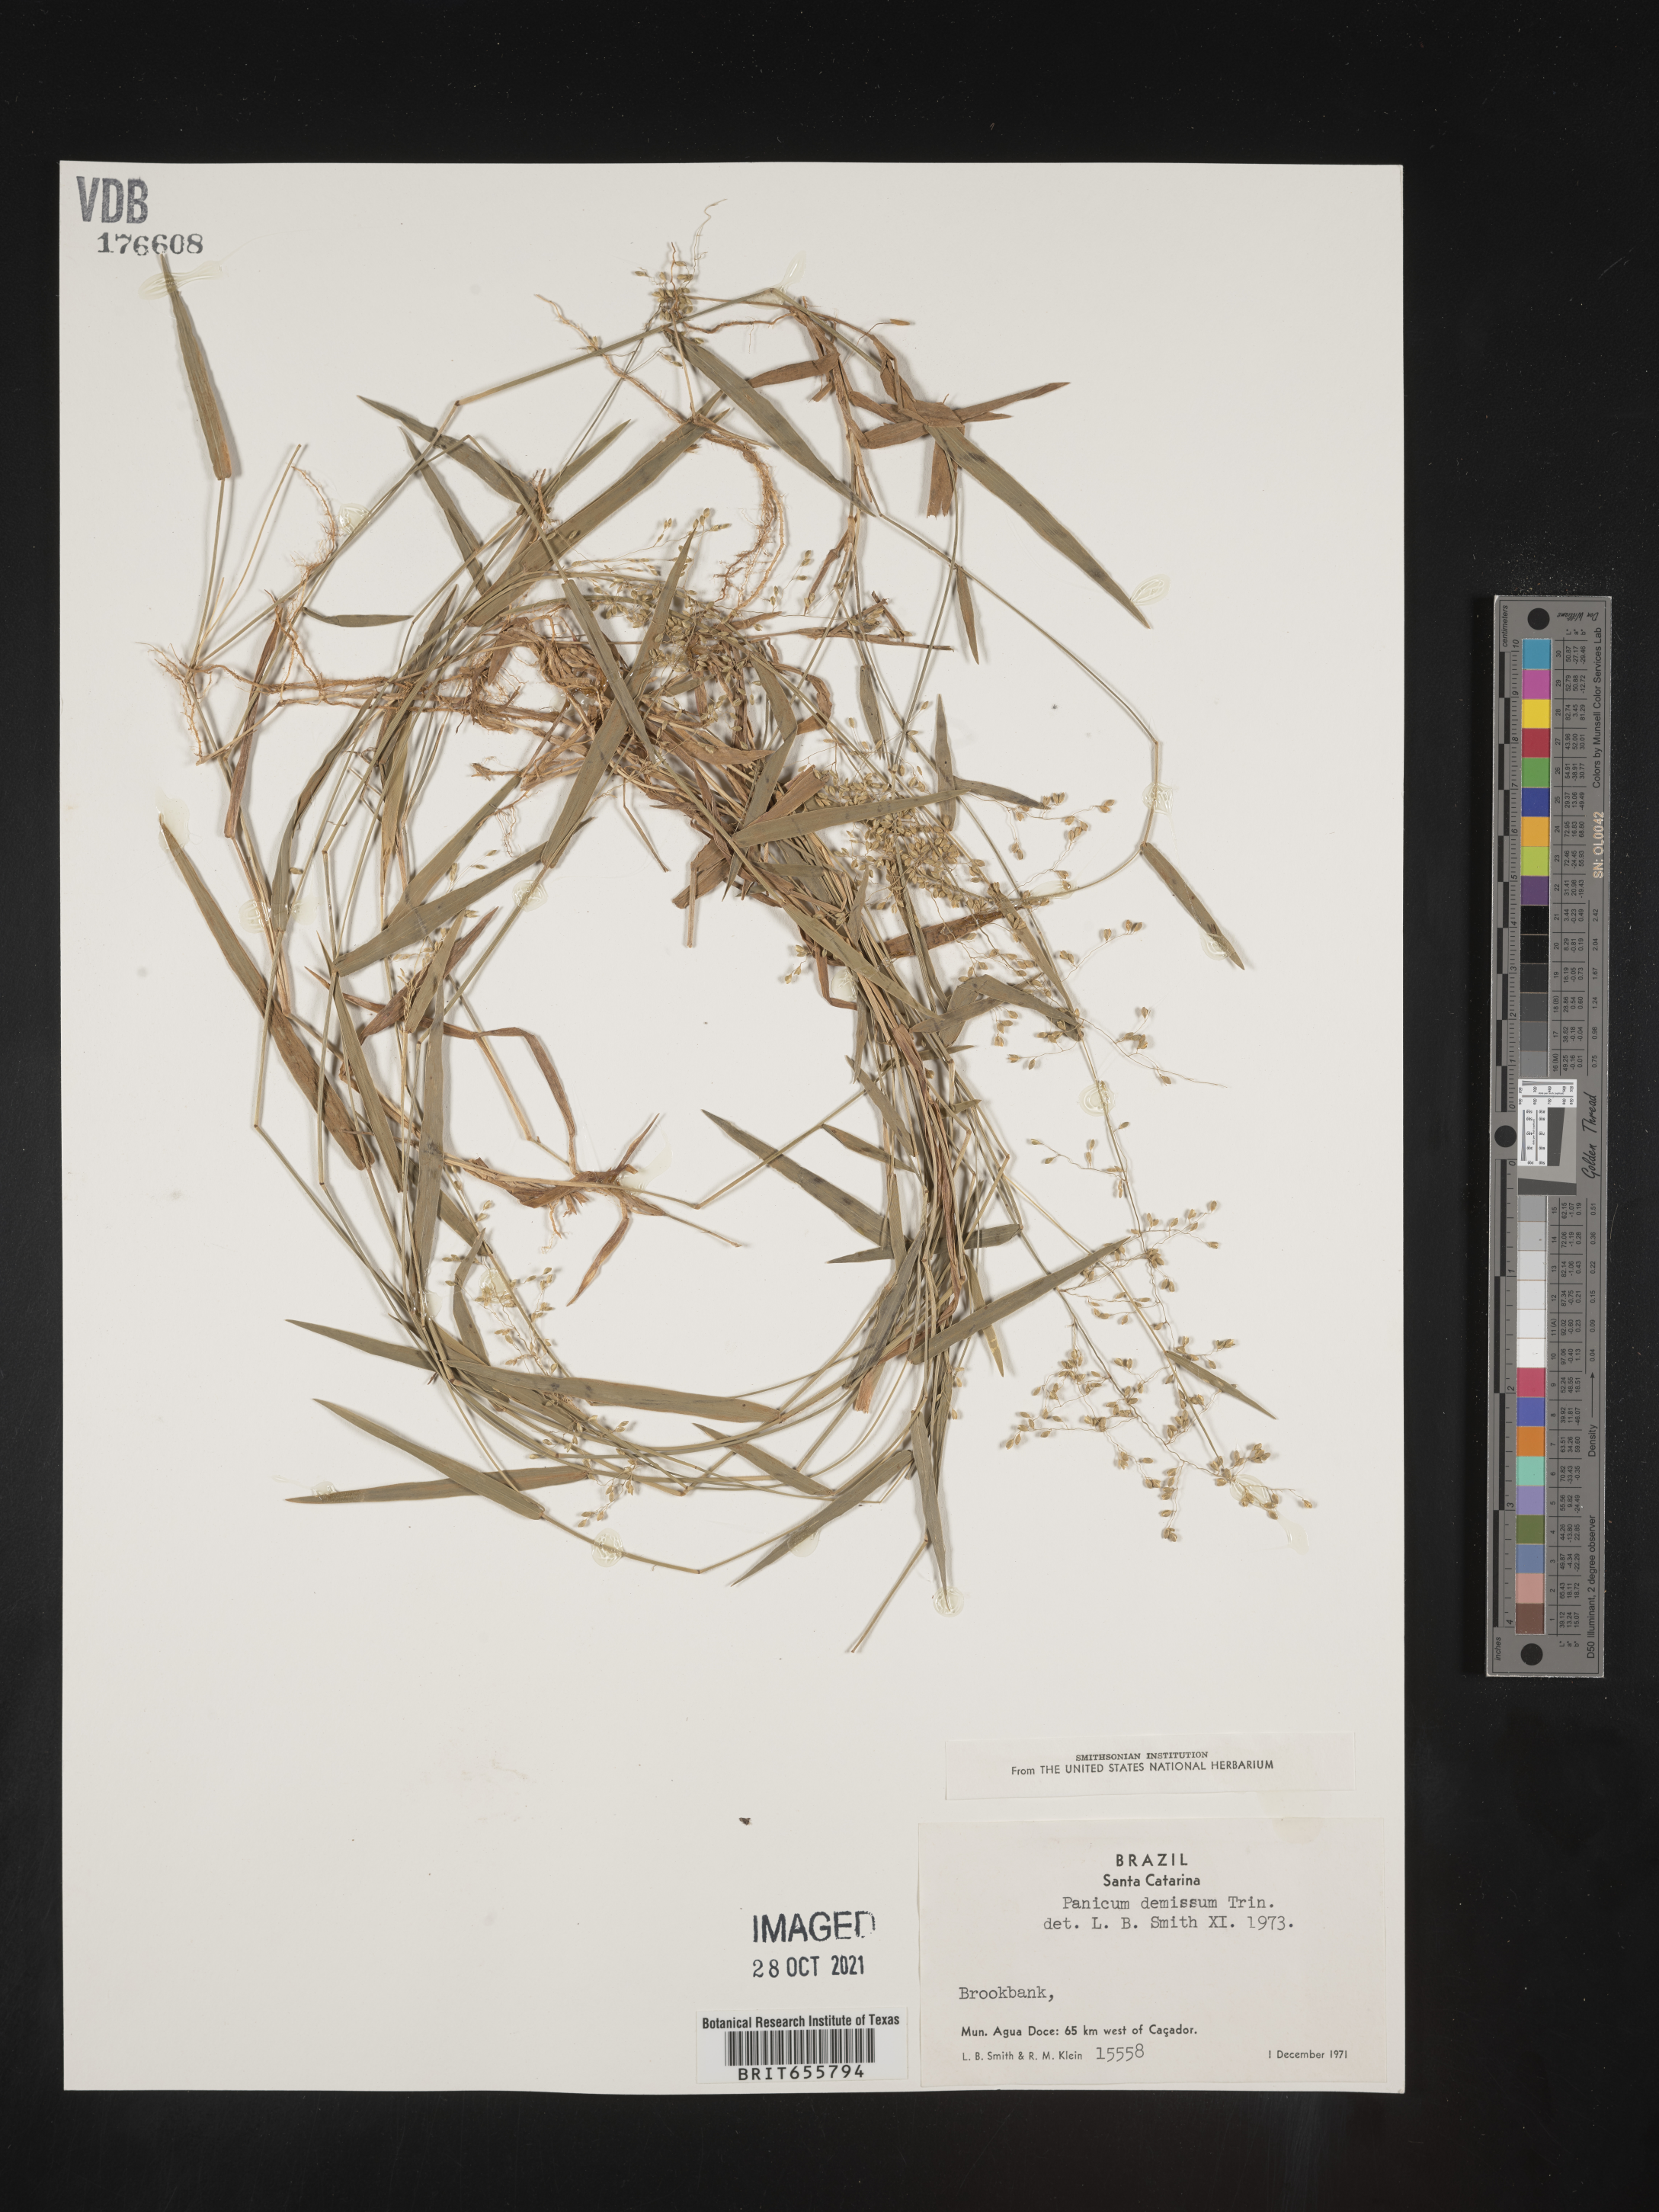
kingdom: Plantae
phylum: Tracheophyta
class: Liliopsida
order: Poales
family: Poaceae
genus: Panicum
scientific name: Panicum
